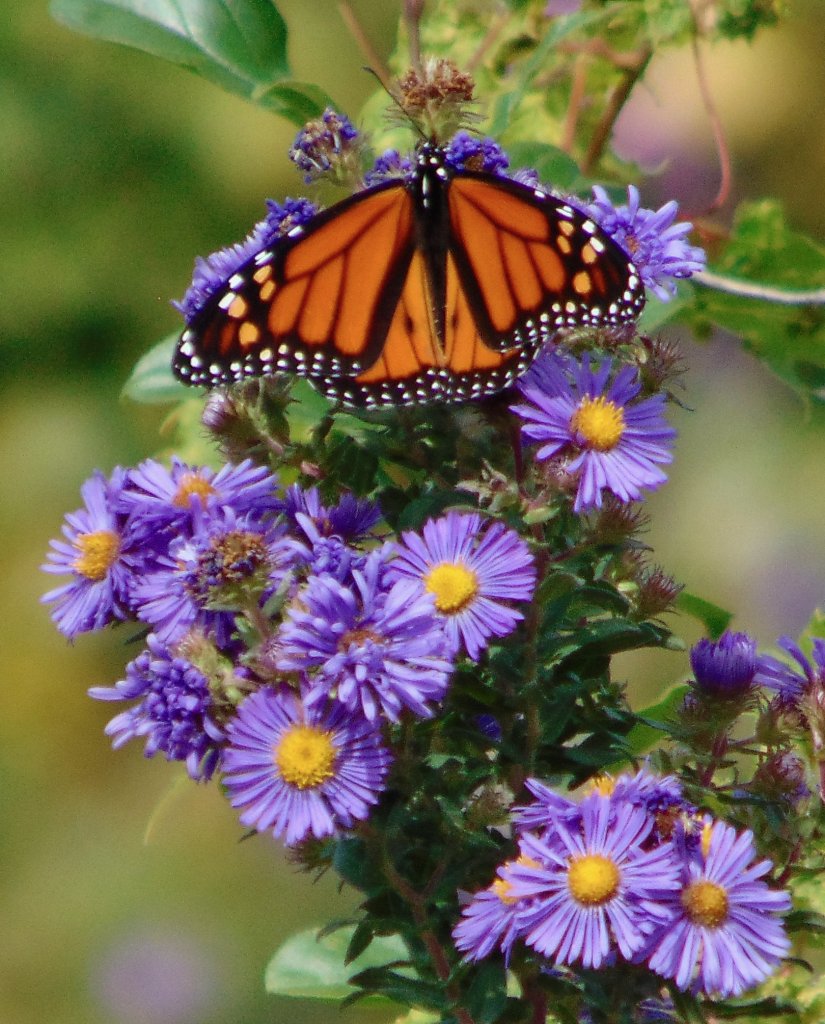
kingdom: Animalia
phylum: Arthropoda
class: Insecta
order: Lepidoptera
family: Nymphalidae
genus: Danaus
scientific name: Danaus plexippus
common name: Monarch
